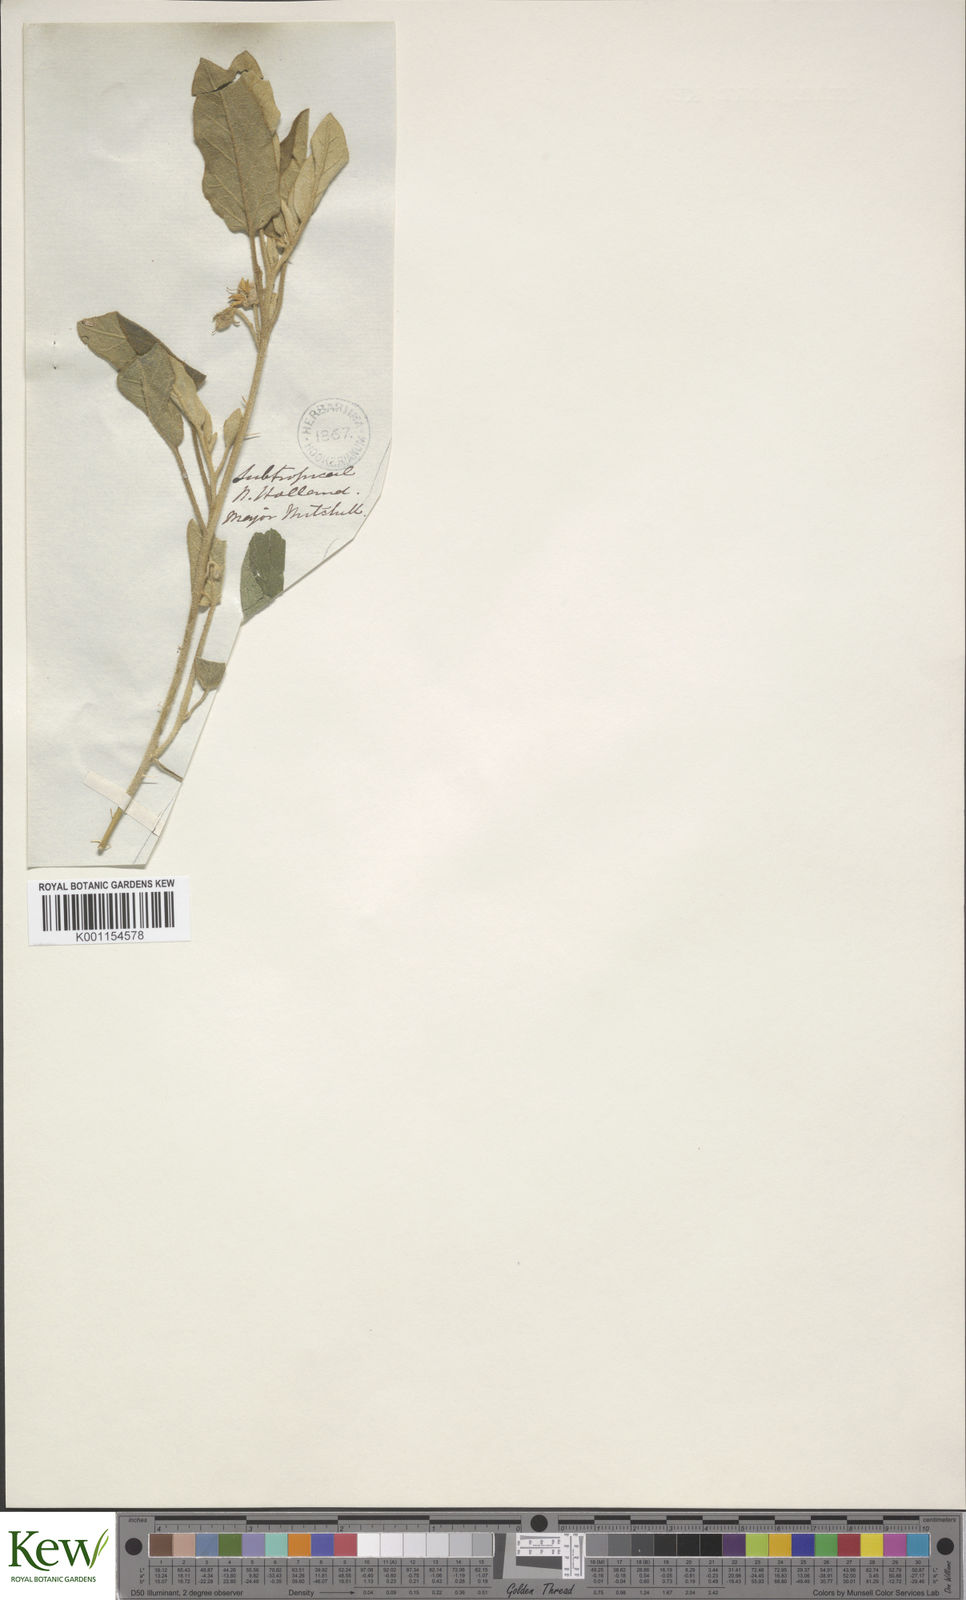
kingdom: Plantae
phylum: Tracheophyta
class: Magnoliopsida
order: Solanales
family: Solanaceae
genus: Solanum
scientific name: Solanum ellipticum
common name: Potato-bush
